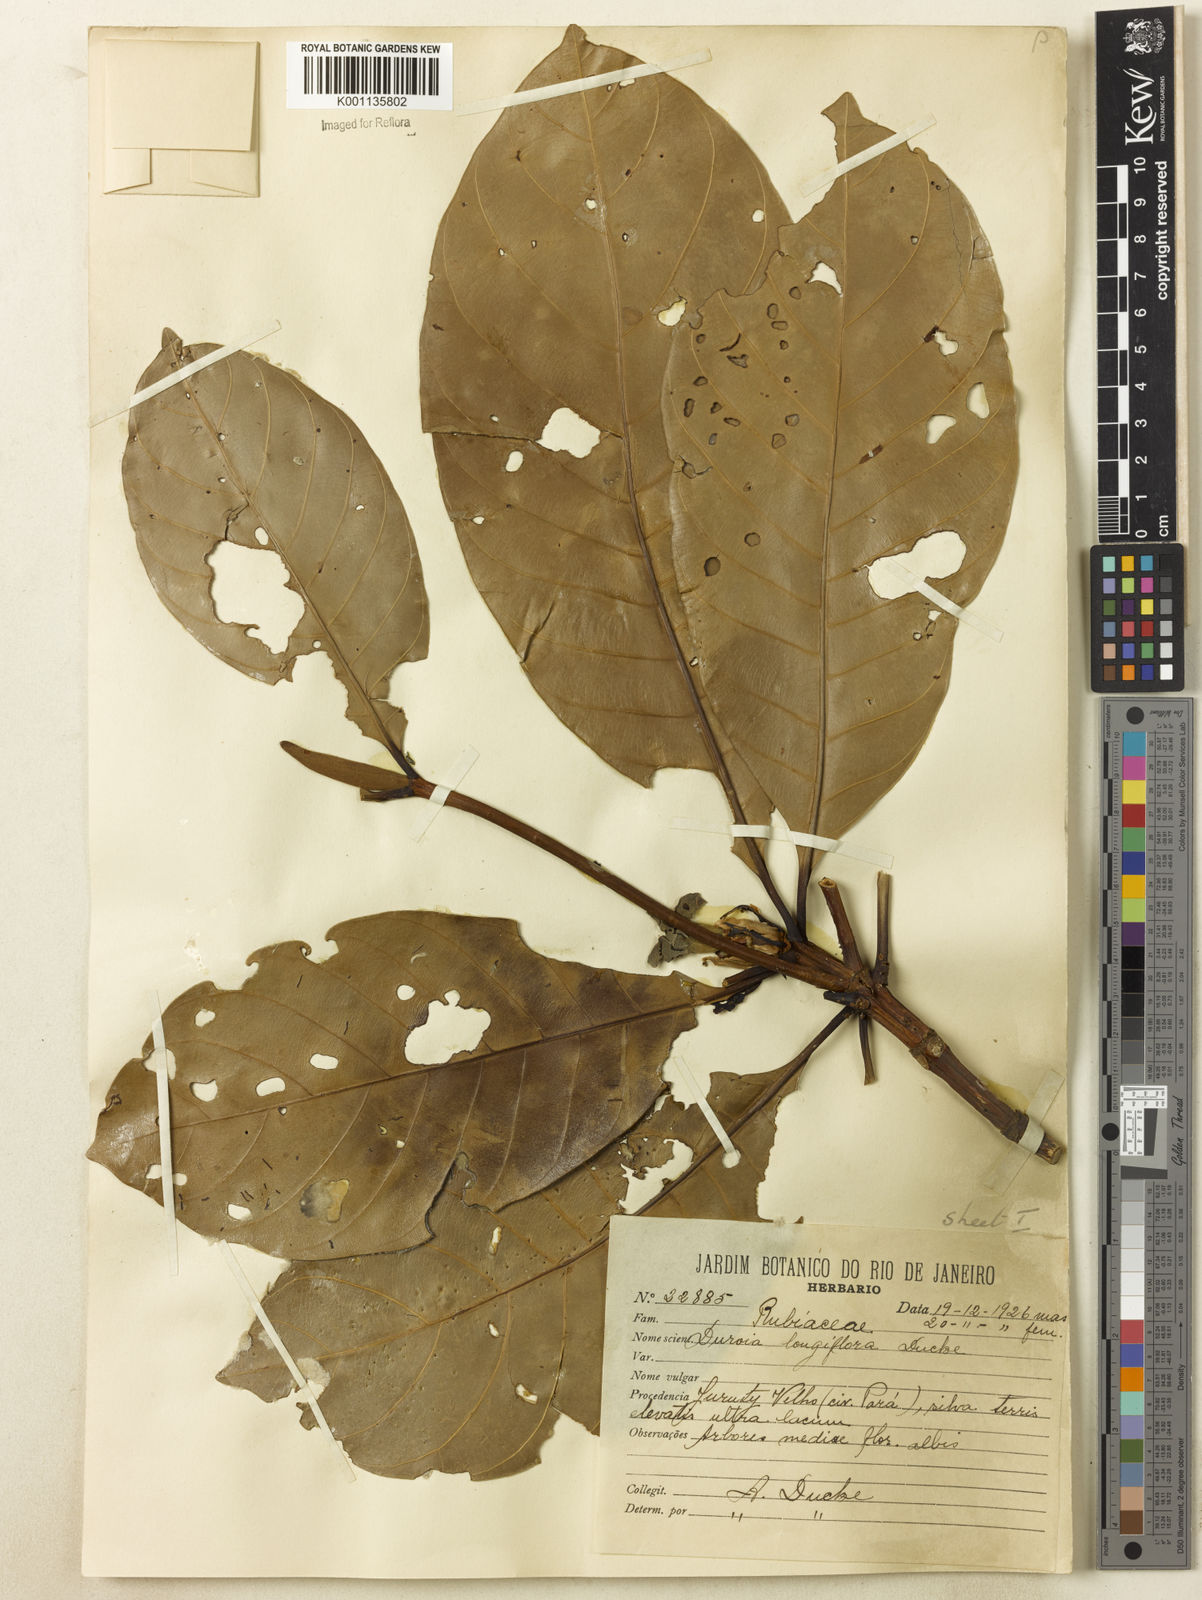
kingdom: Plantae
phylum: Tracheophyta
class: Magnoliopsida
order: Gentianales
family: Rubiaceae
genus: Duroia
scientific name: Duroia genipoides
